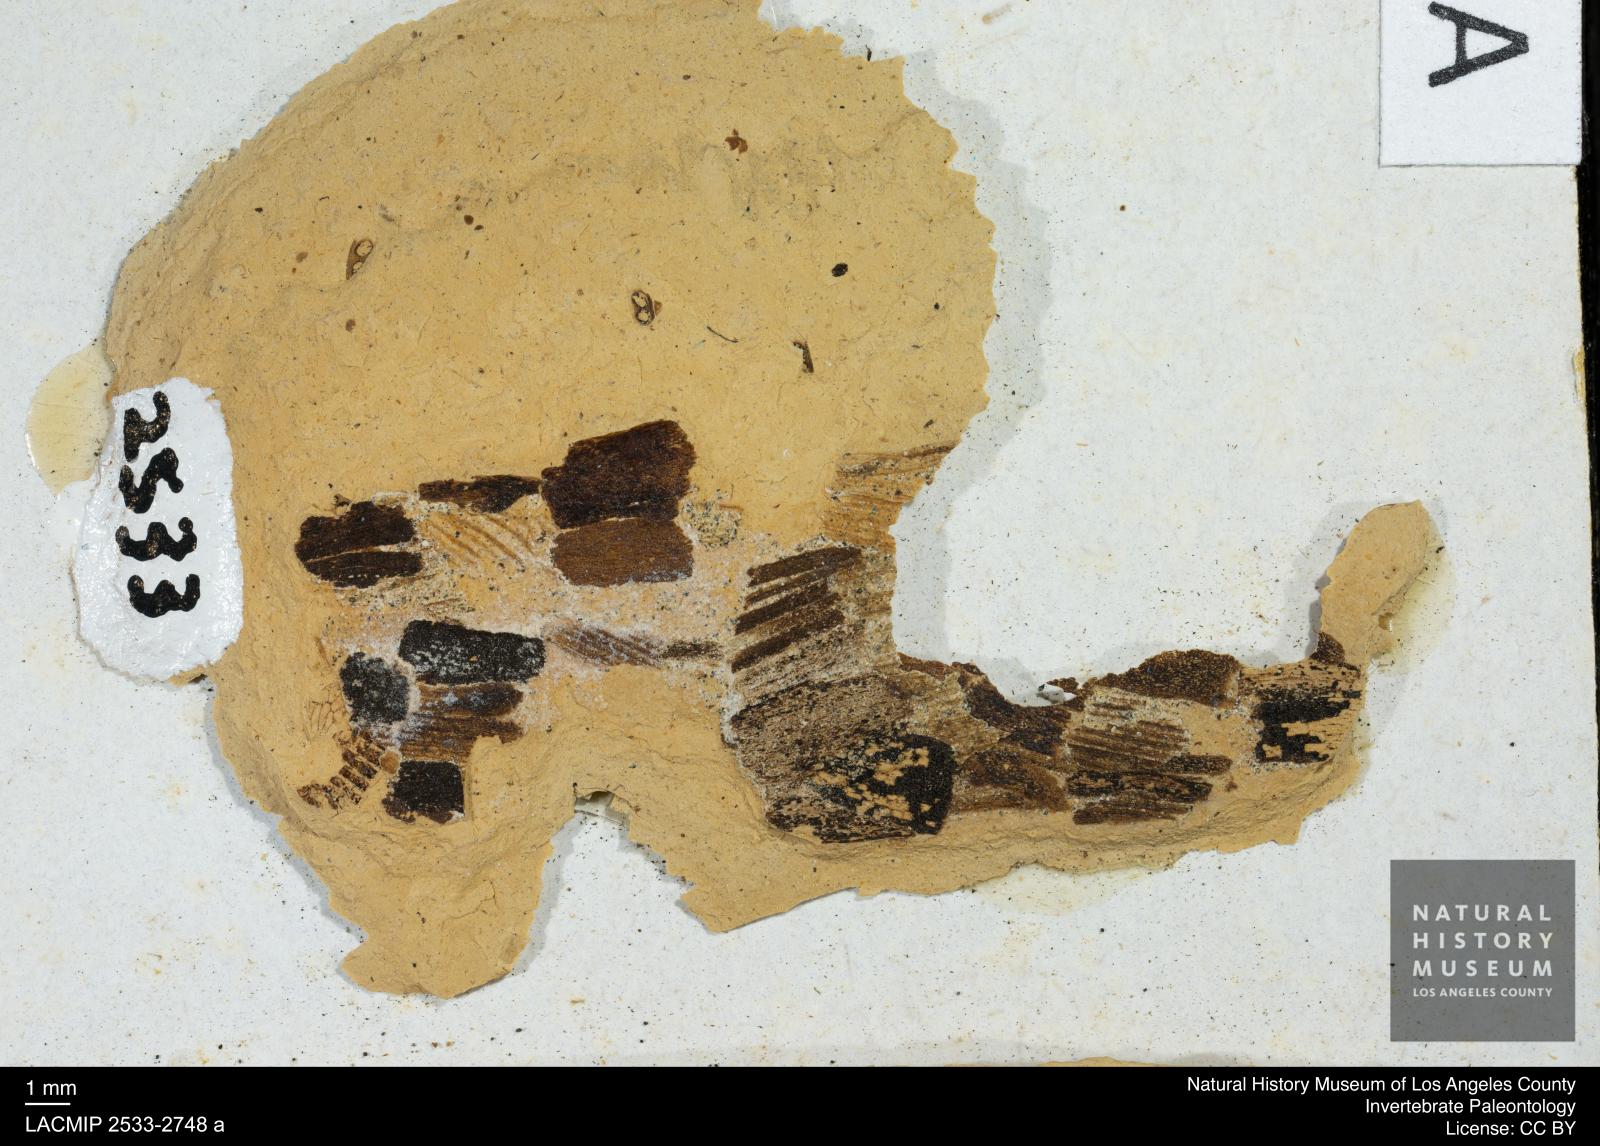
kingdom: Animalia
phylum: Arthropoda
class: Insecta
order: Trichoptera
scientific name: Trichoptera
